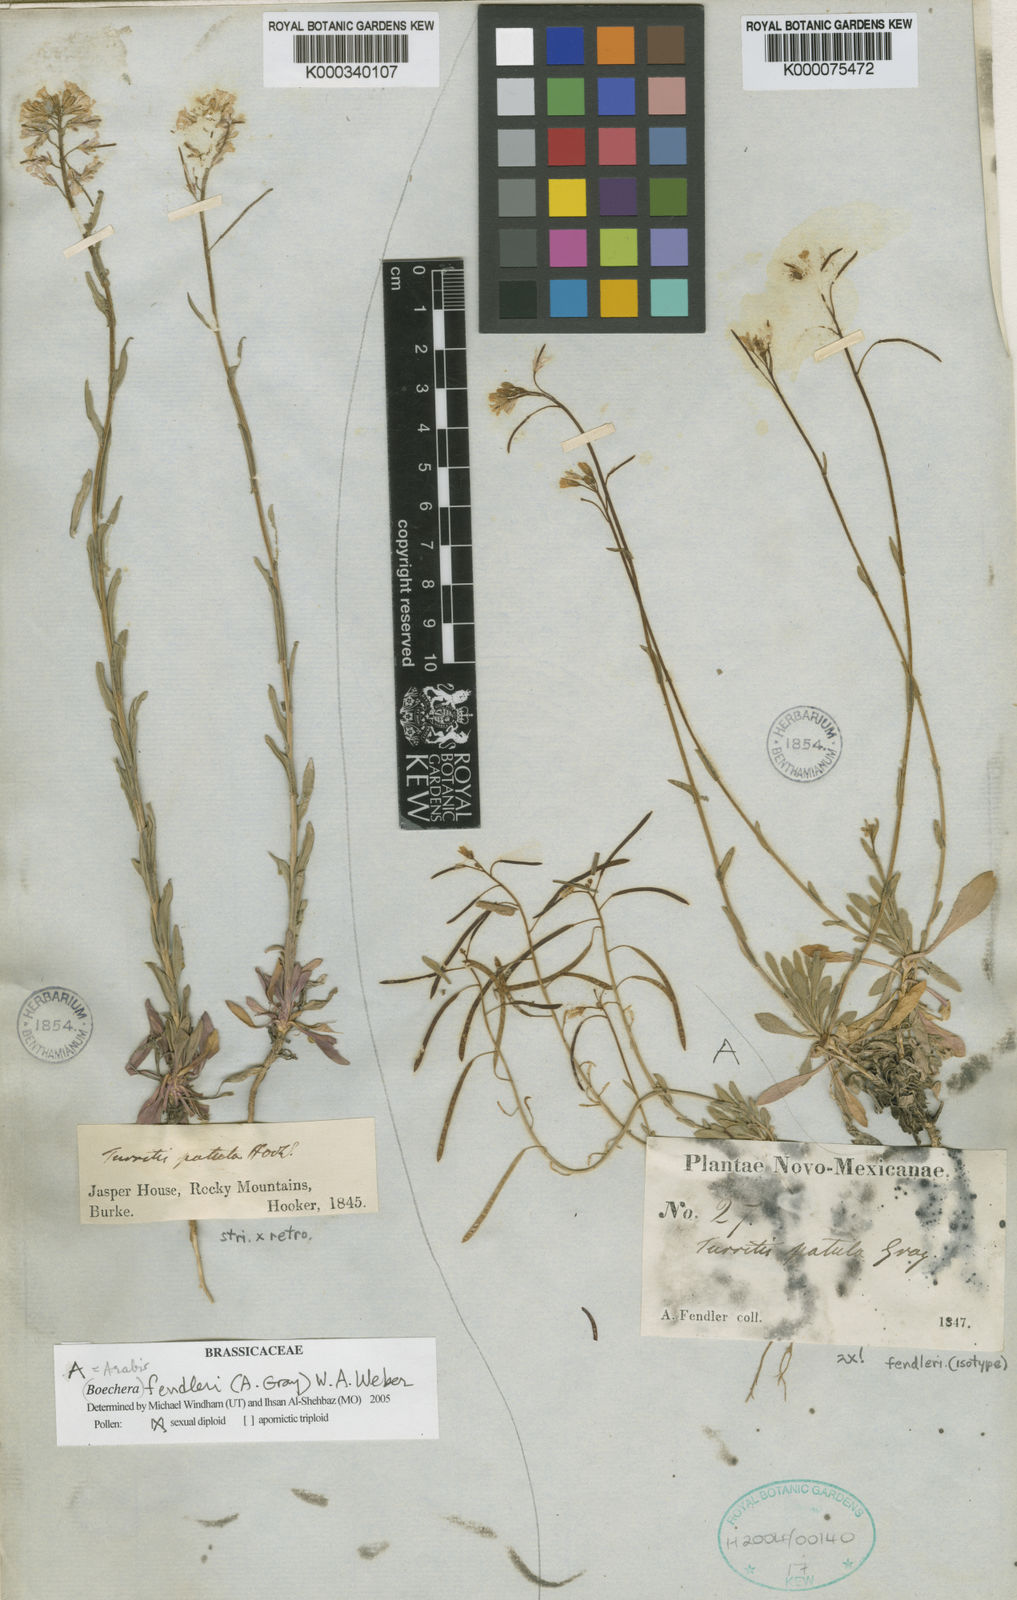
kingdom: Plantae
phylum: Tracheophyta
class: Magnoliopsida
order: Brassicales
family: Brassicaceae
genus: Boechera
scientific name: Boechera fendleri
